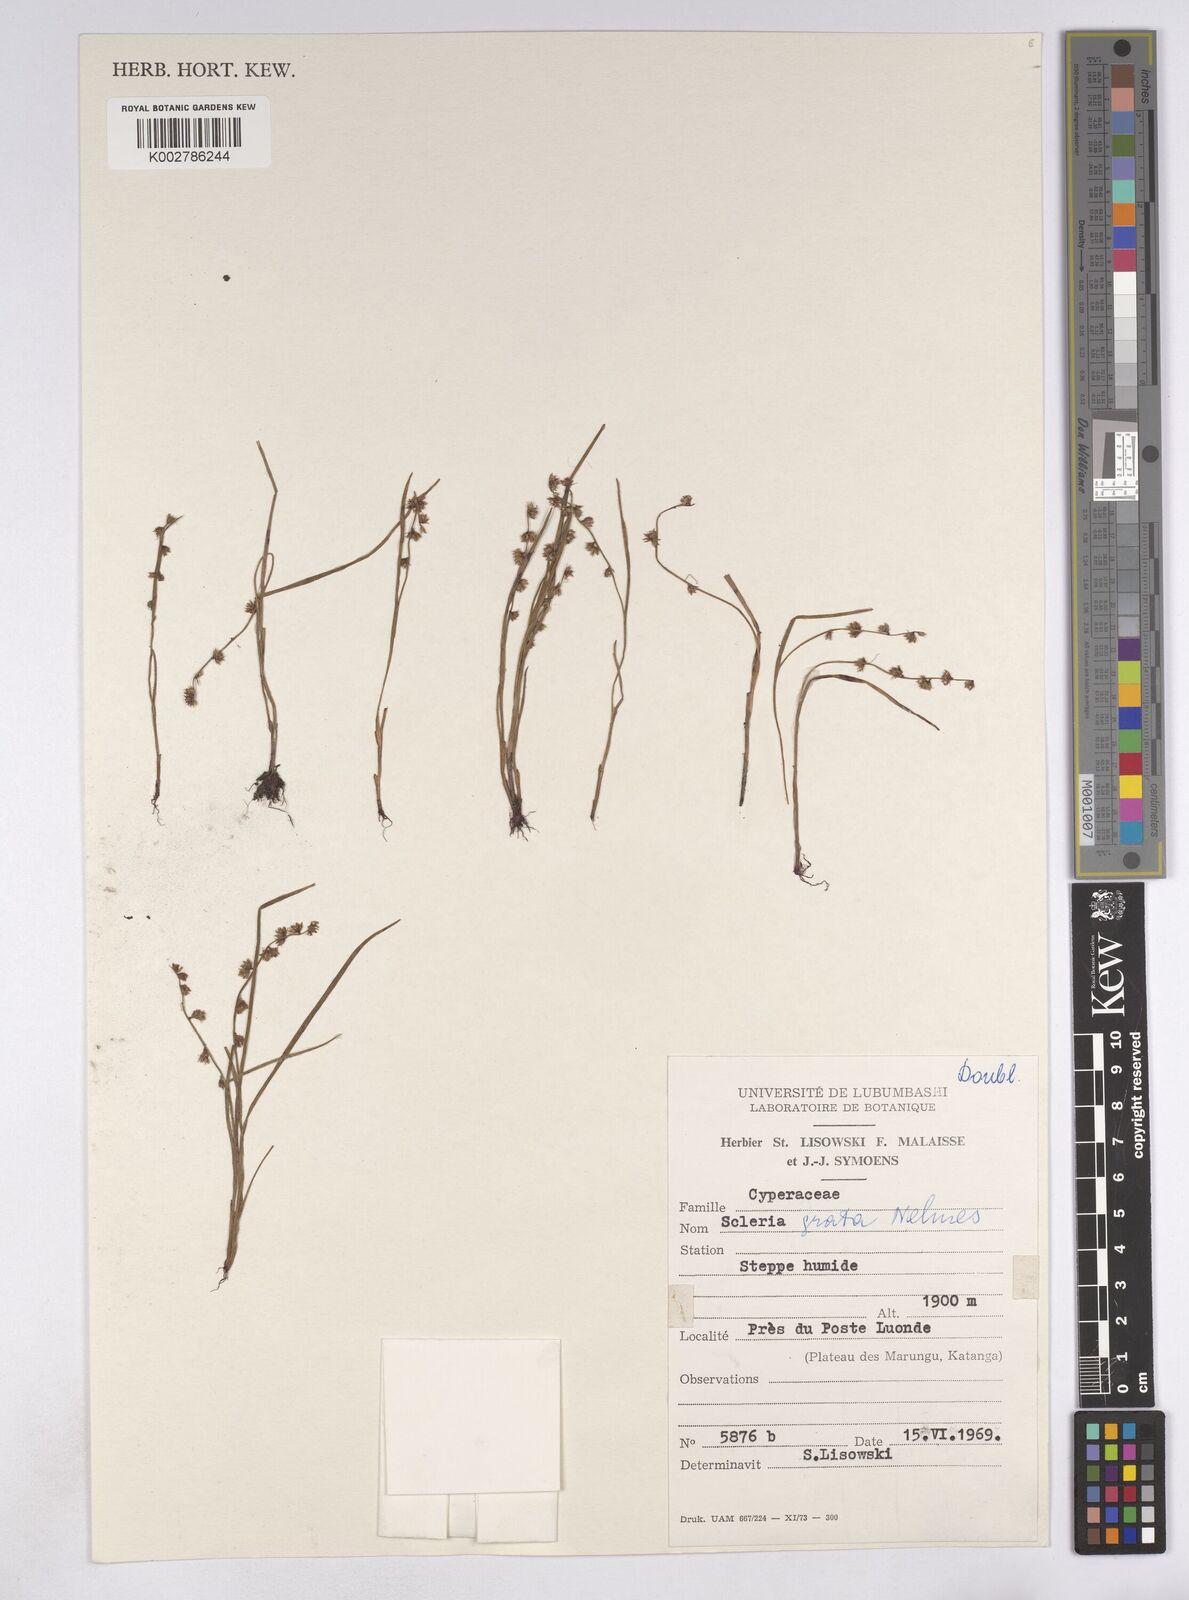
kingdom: Plantae
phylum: Tracheophyta
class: Liliopsida
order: Poales
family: Cyperaceae
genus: Scleria
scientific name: Scleria melanotricha
